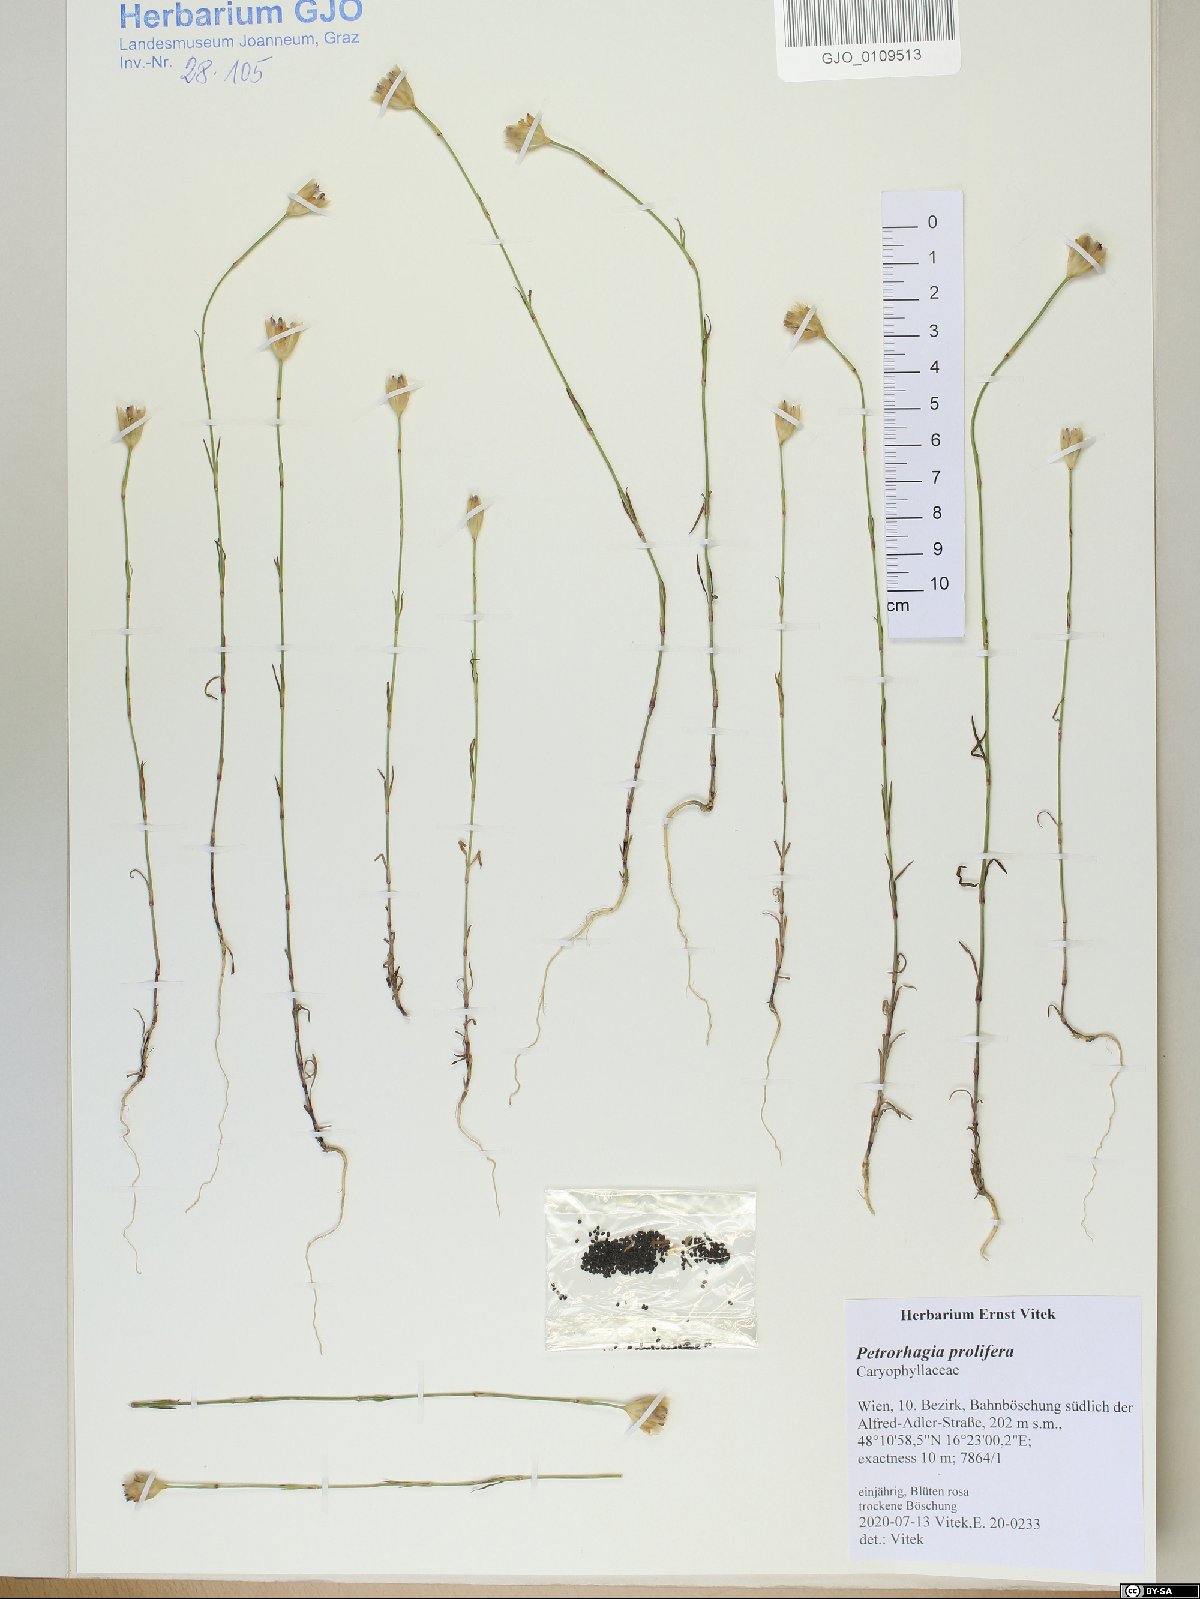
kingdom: Plantae
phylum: Tracheophyta
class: Magnoliopsida
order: Caryophyllales
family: Caryophyllaceae
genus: Petrorhagia
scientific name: Petrorhagia prolifera
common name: Proliferous pink
